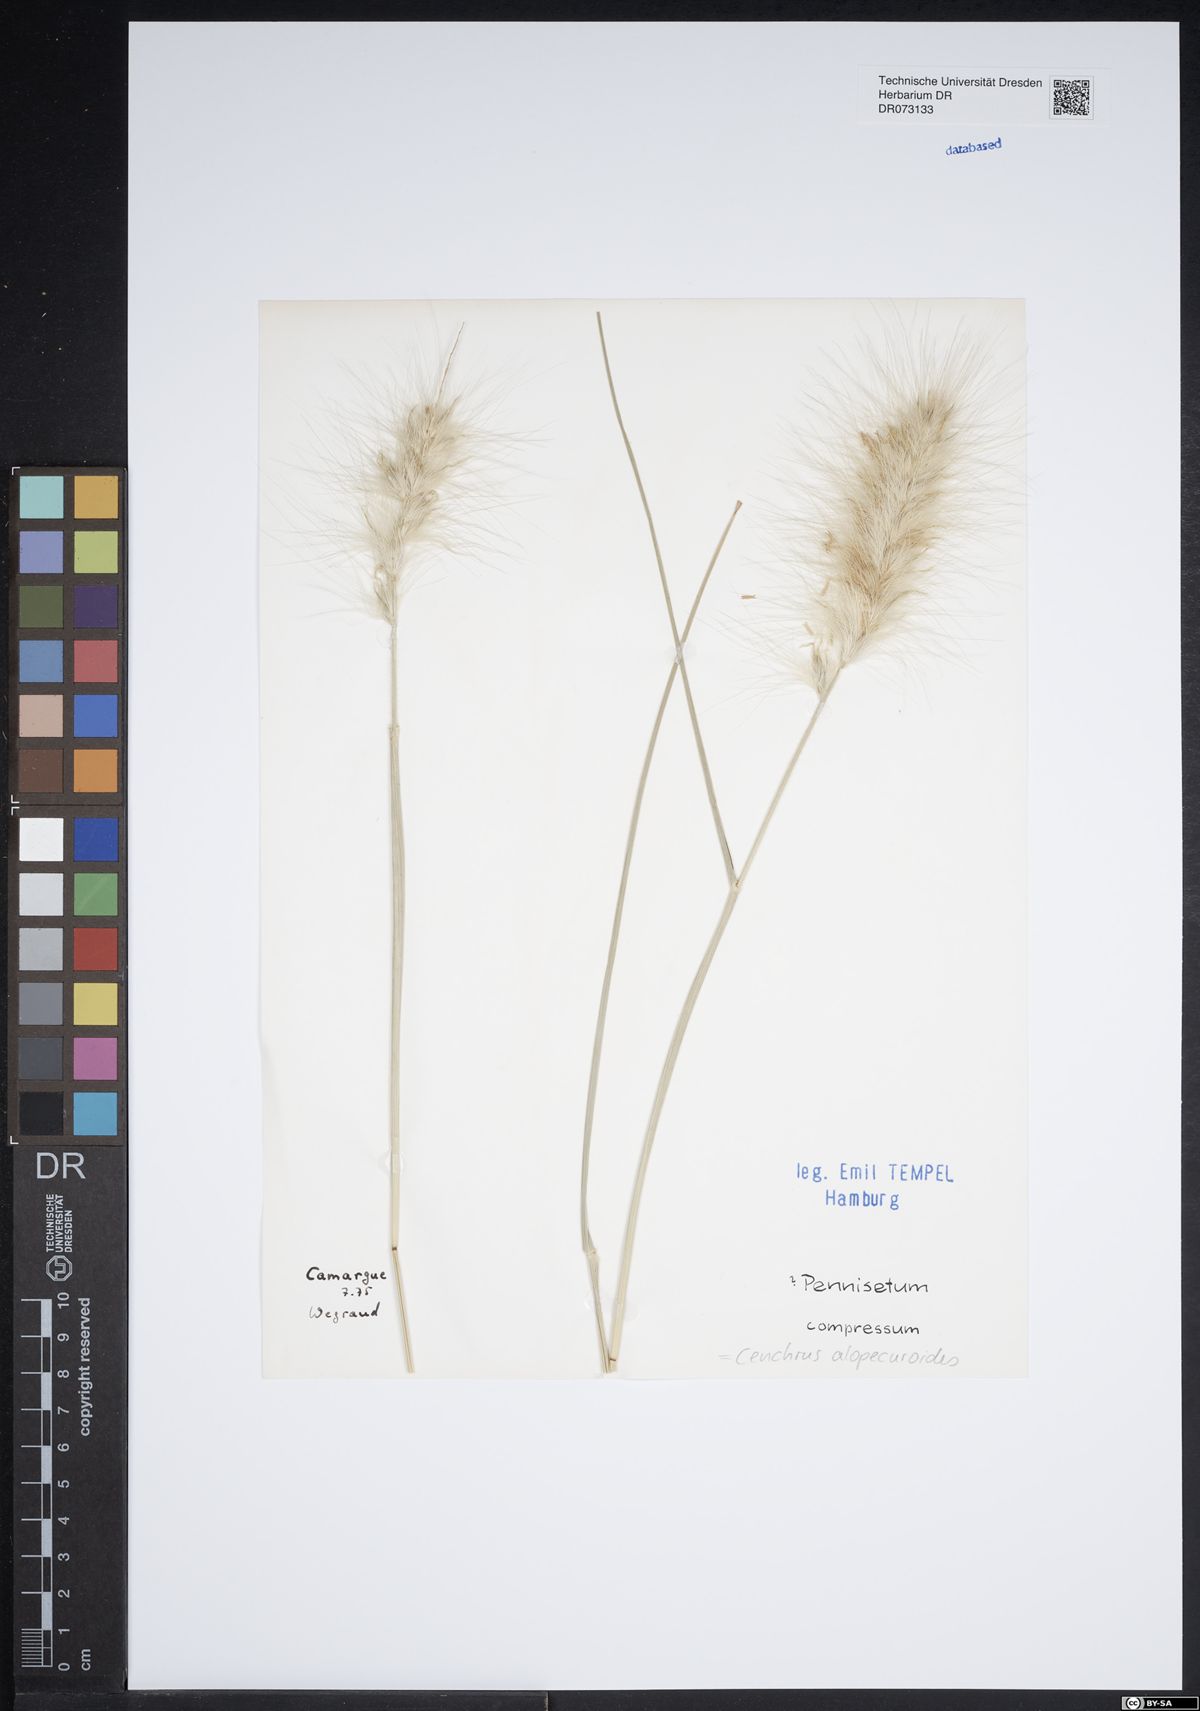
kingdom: Plantae
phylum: Tracheophyta
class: Liliopsida
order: Poales
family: Poaceae
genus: Cenchrus
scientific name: Cenchrus myosuroides
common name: Big sandbur
